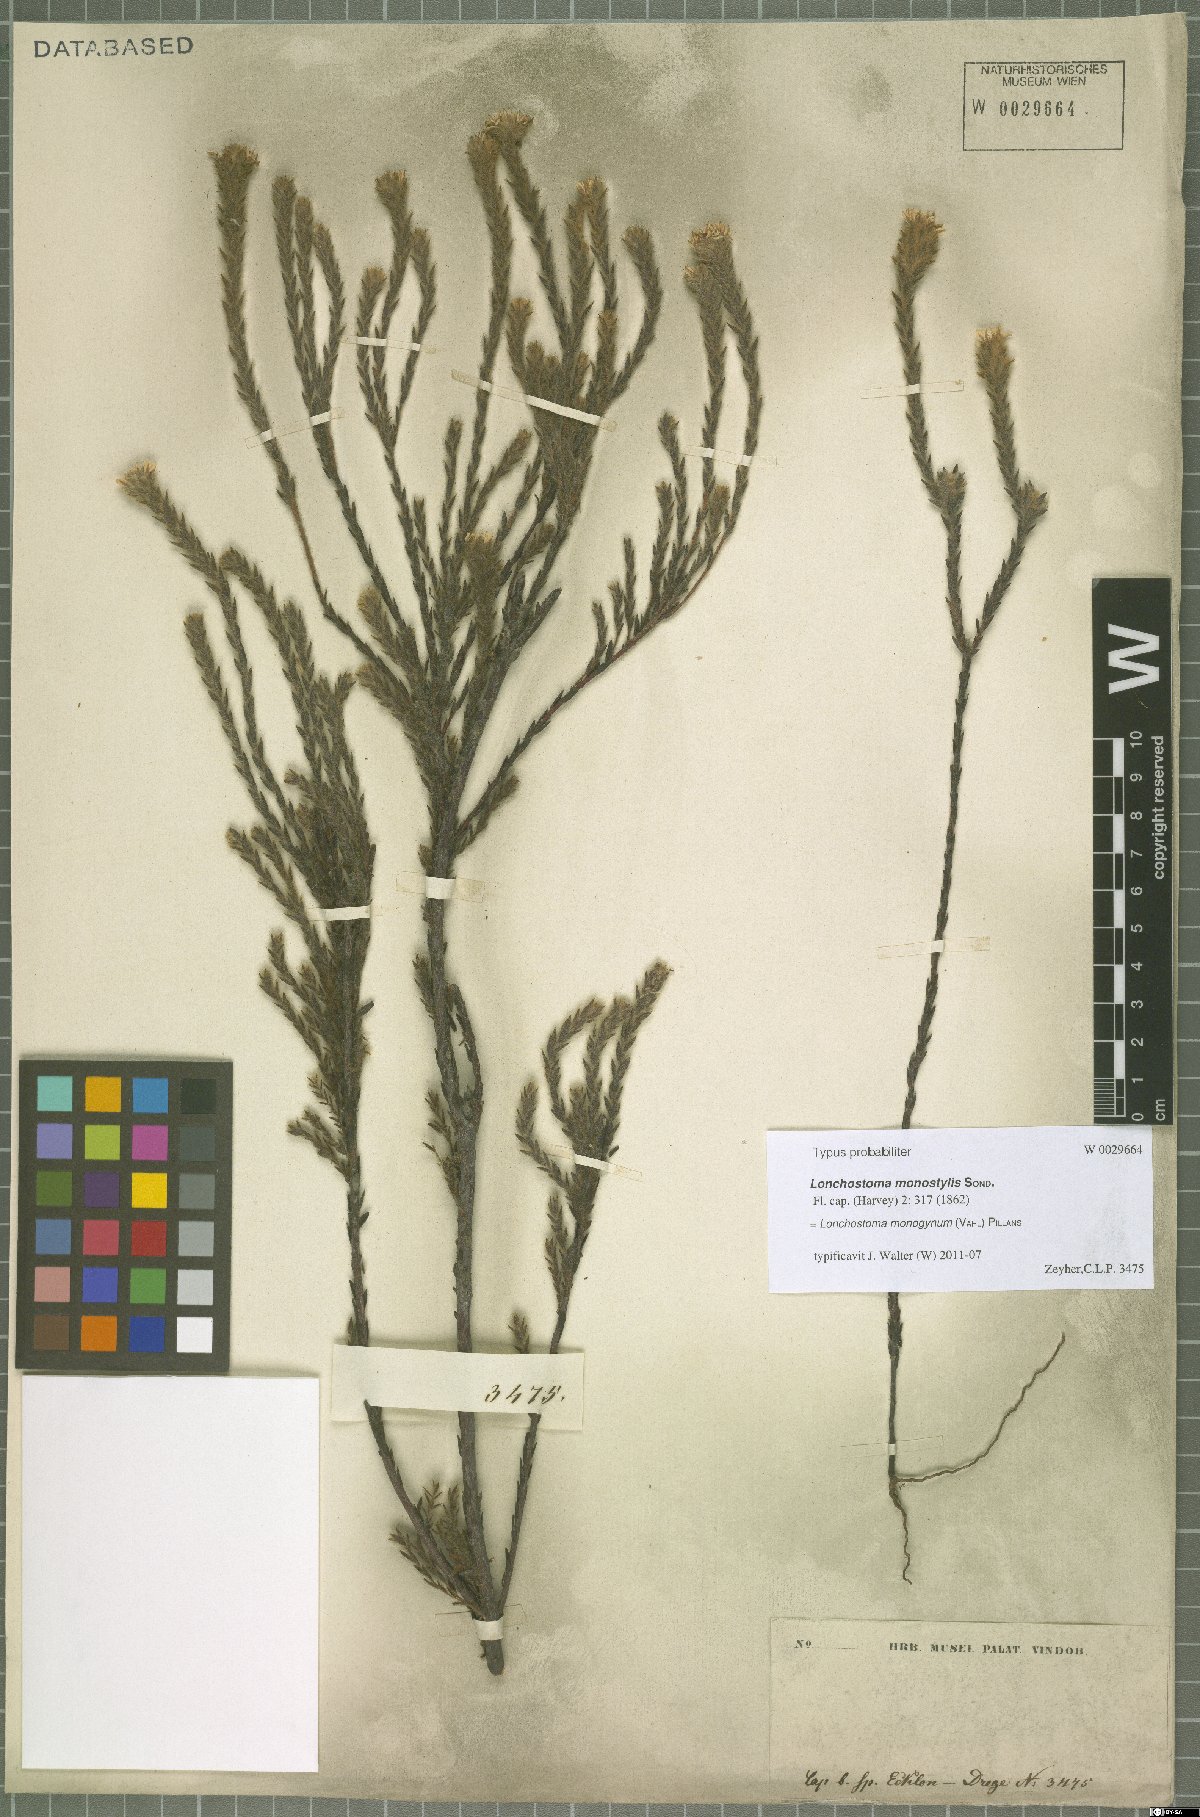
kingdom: Plantae
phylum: Tracheophyta
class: Magnoliopsida
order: Bruniales
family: Bruniaceae
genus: Brunia
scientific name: Brunia monogyna
